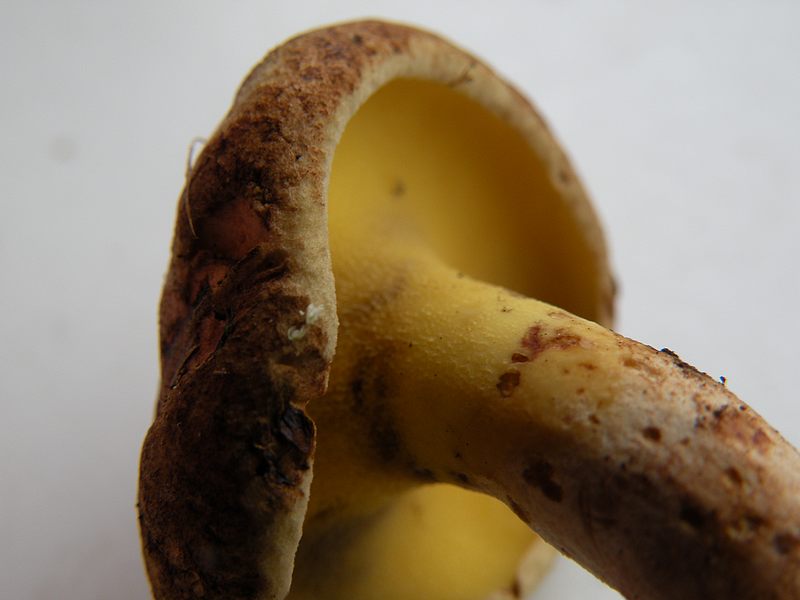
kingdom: Fungi
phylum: Basidiomycota
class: Agaricomycetes
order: Boletales
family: Paxillaceae
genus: Gyrodon
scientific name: Gyrodon lividus
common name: ellerørhat
